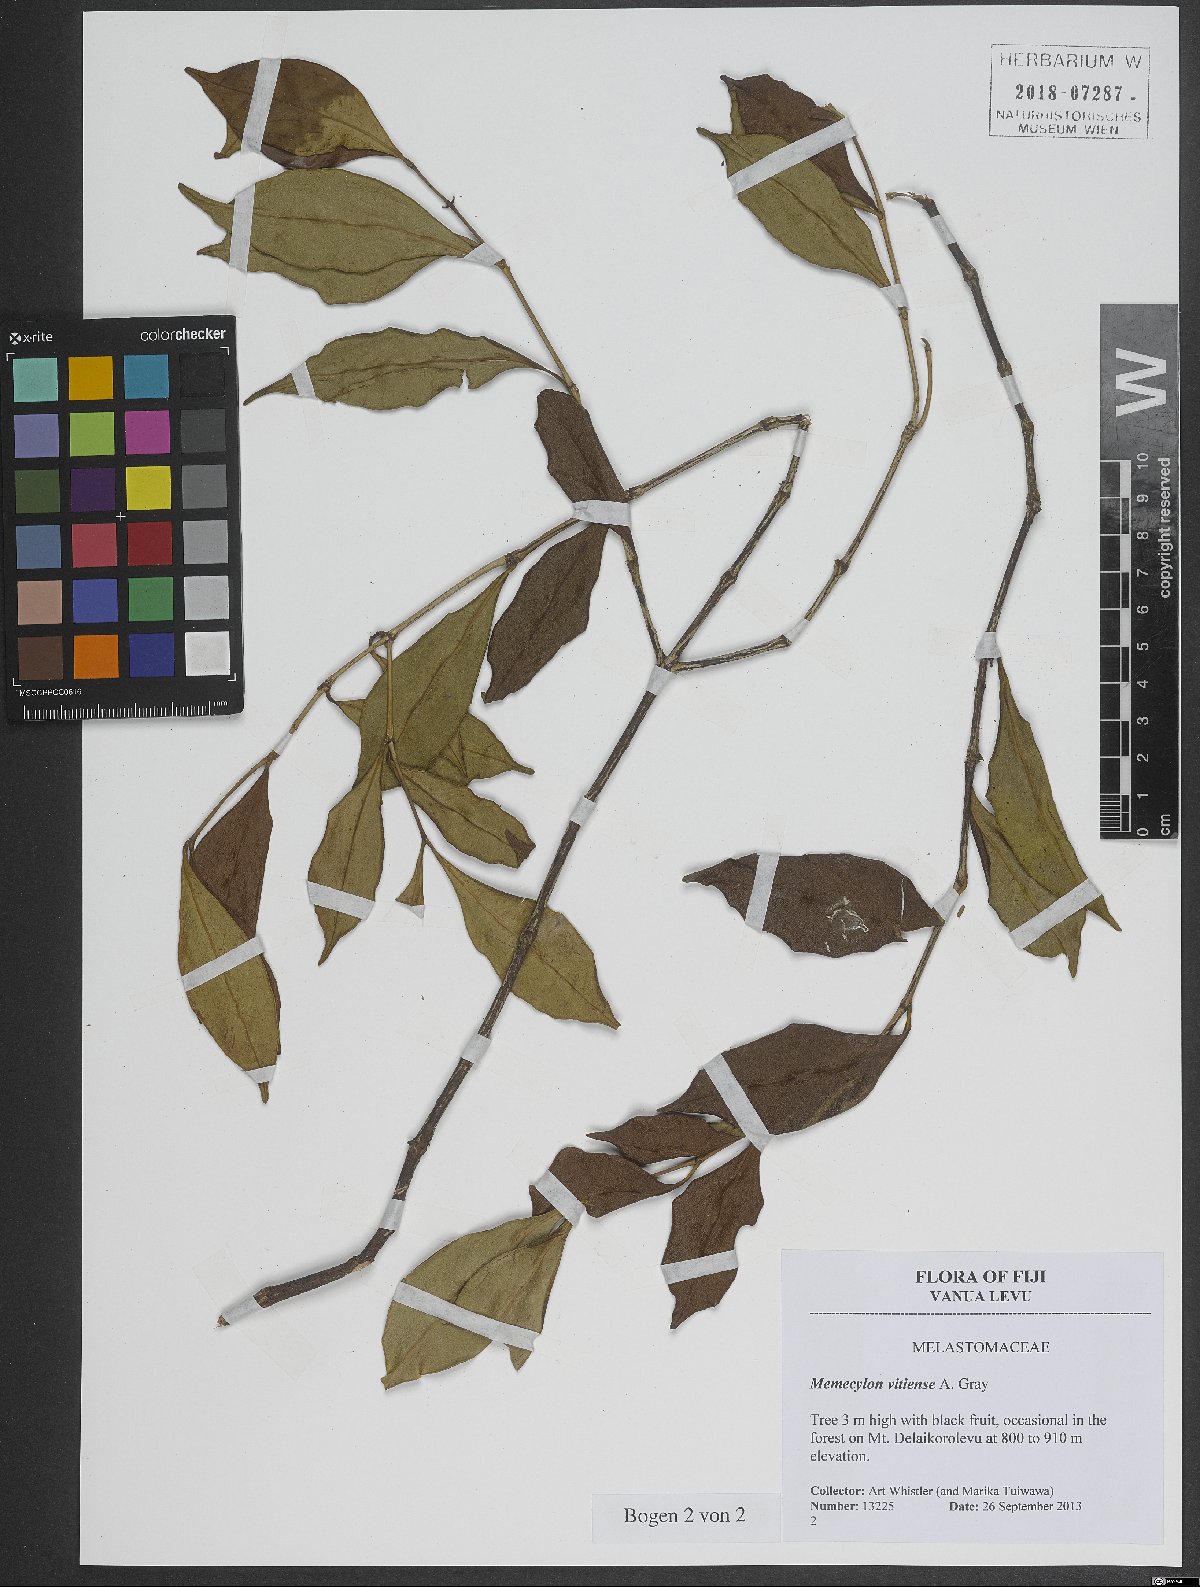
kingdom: Plantae
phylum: Tracheophyta
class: Magnoliopsida
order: Myrtales
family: Melastomataceae
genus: Memecylon
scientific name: Memecylon vitiense
